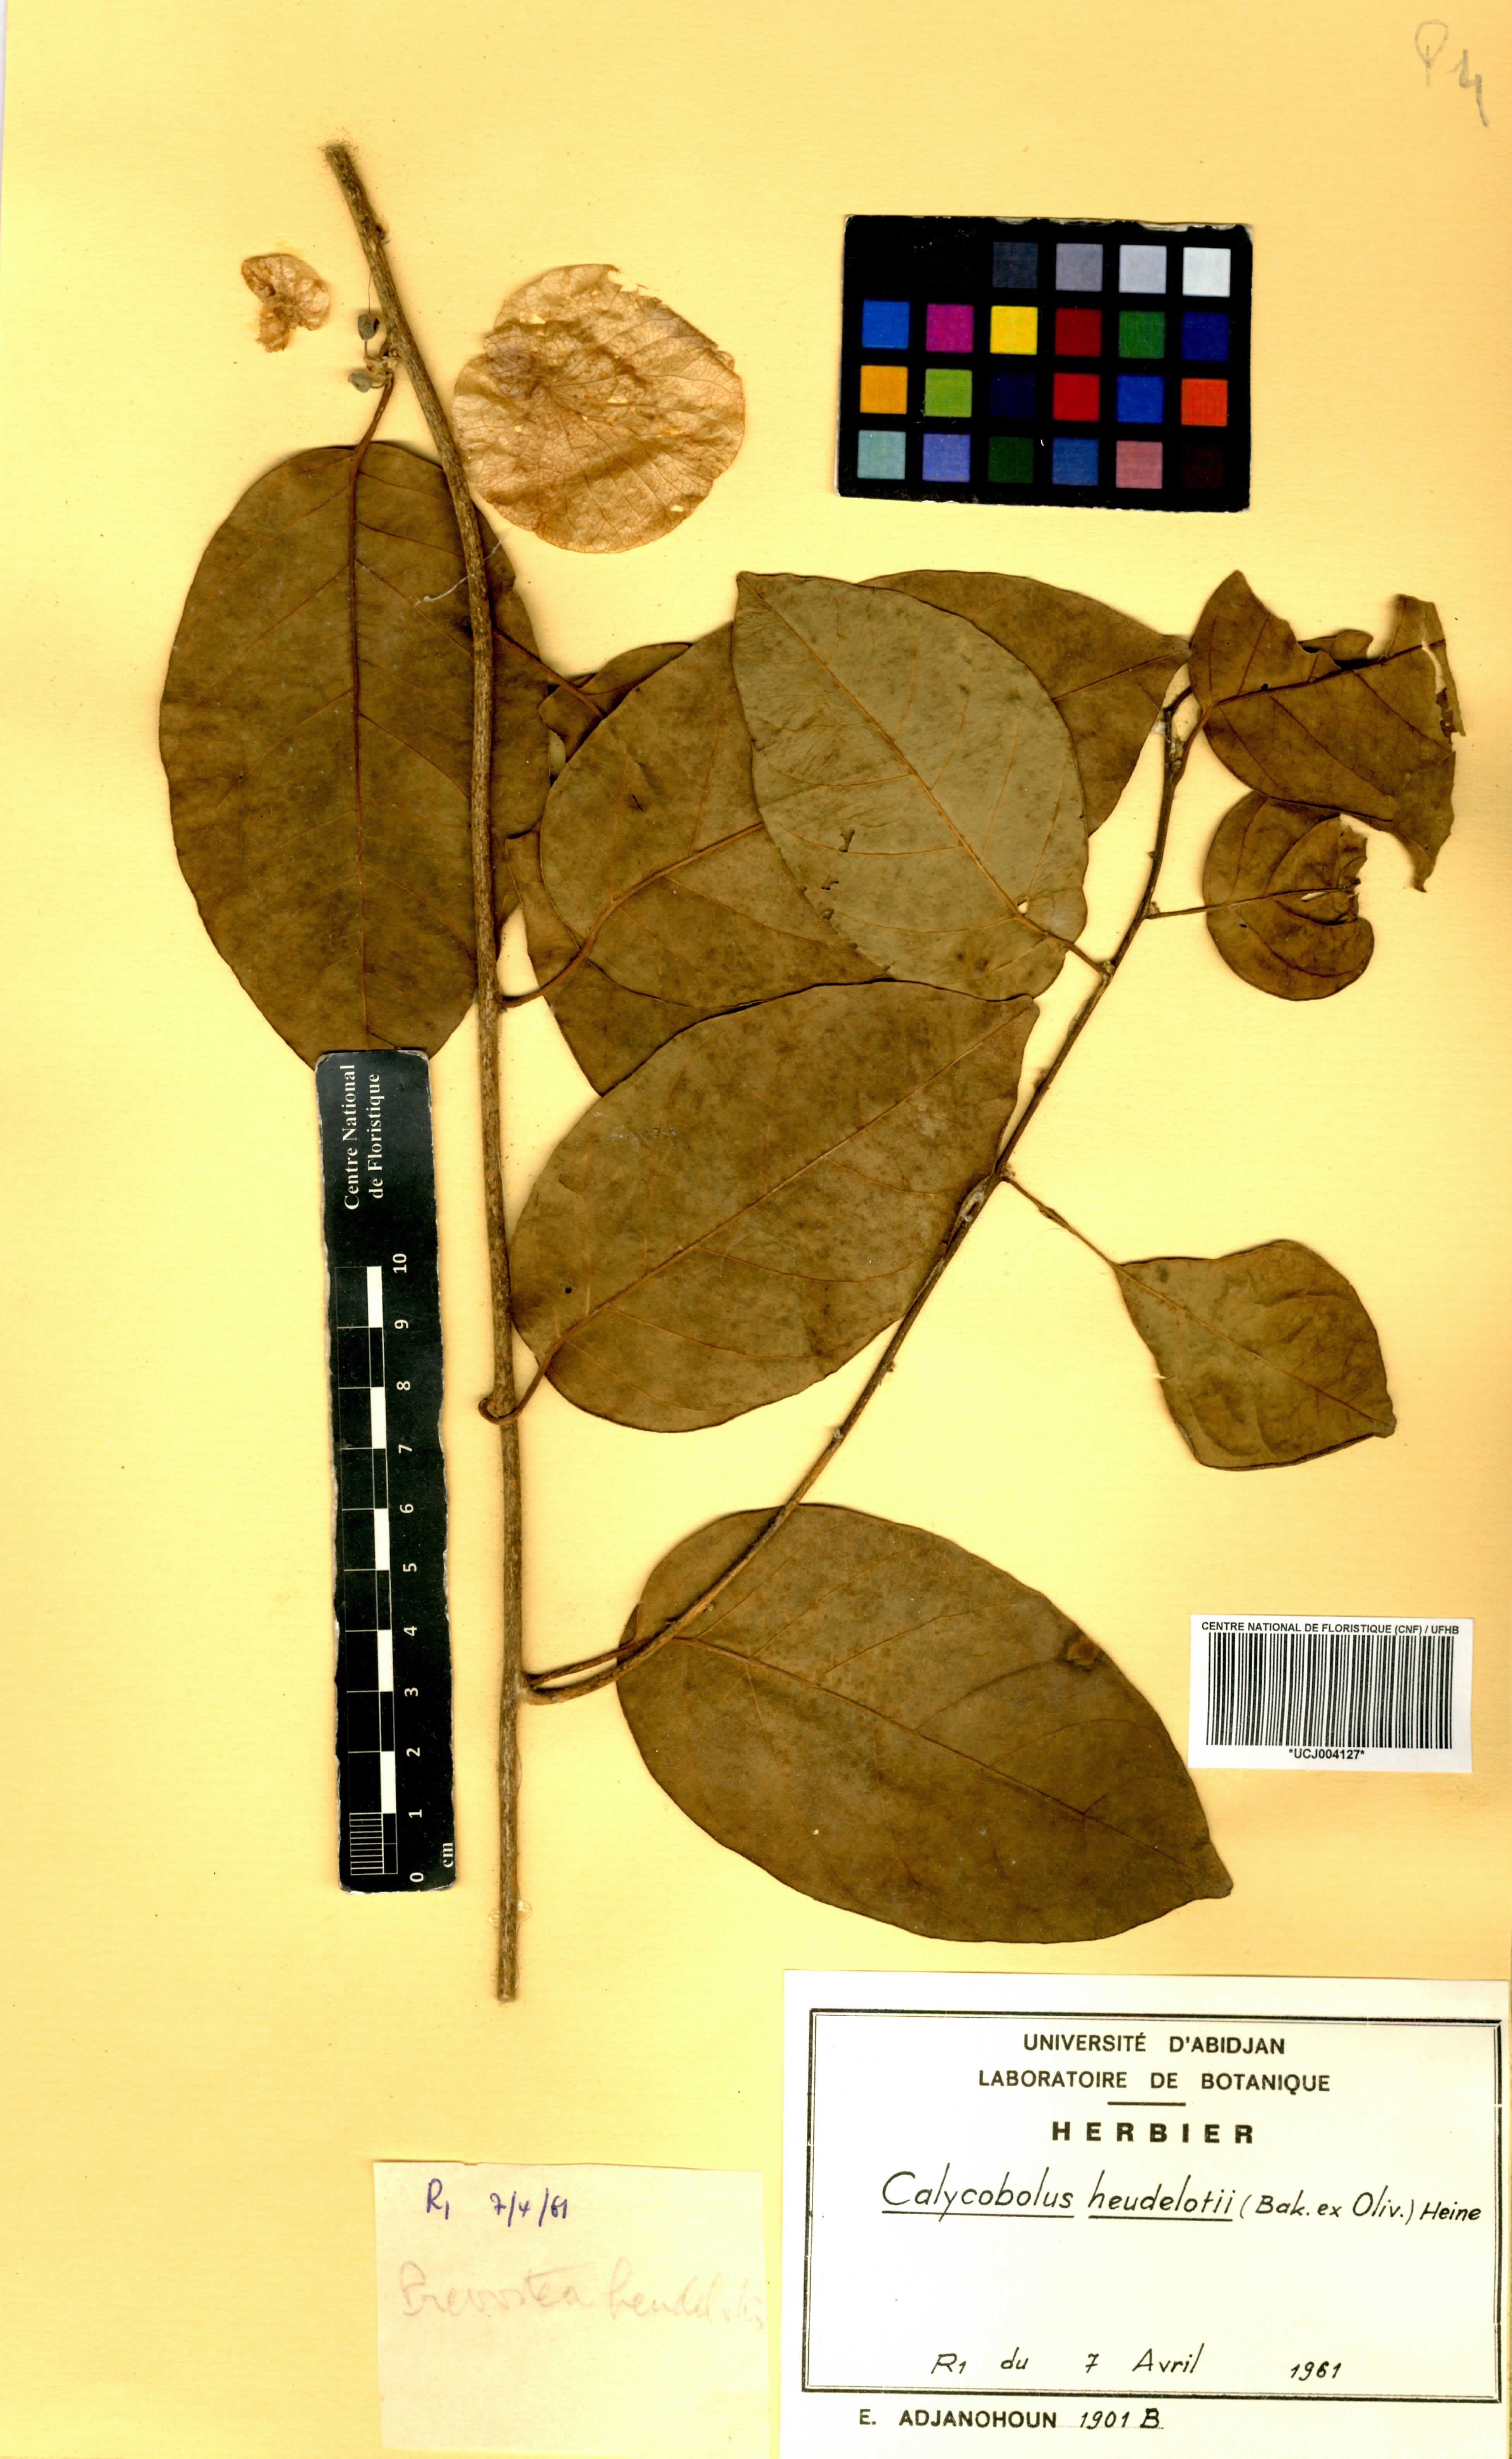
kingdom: Plantae
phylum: Tracheophyta
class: Magnoliopsida
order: Solanales
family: Convolvulaceae
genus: Calycobolus
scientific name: Calycobolus heudelotii
